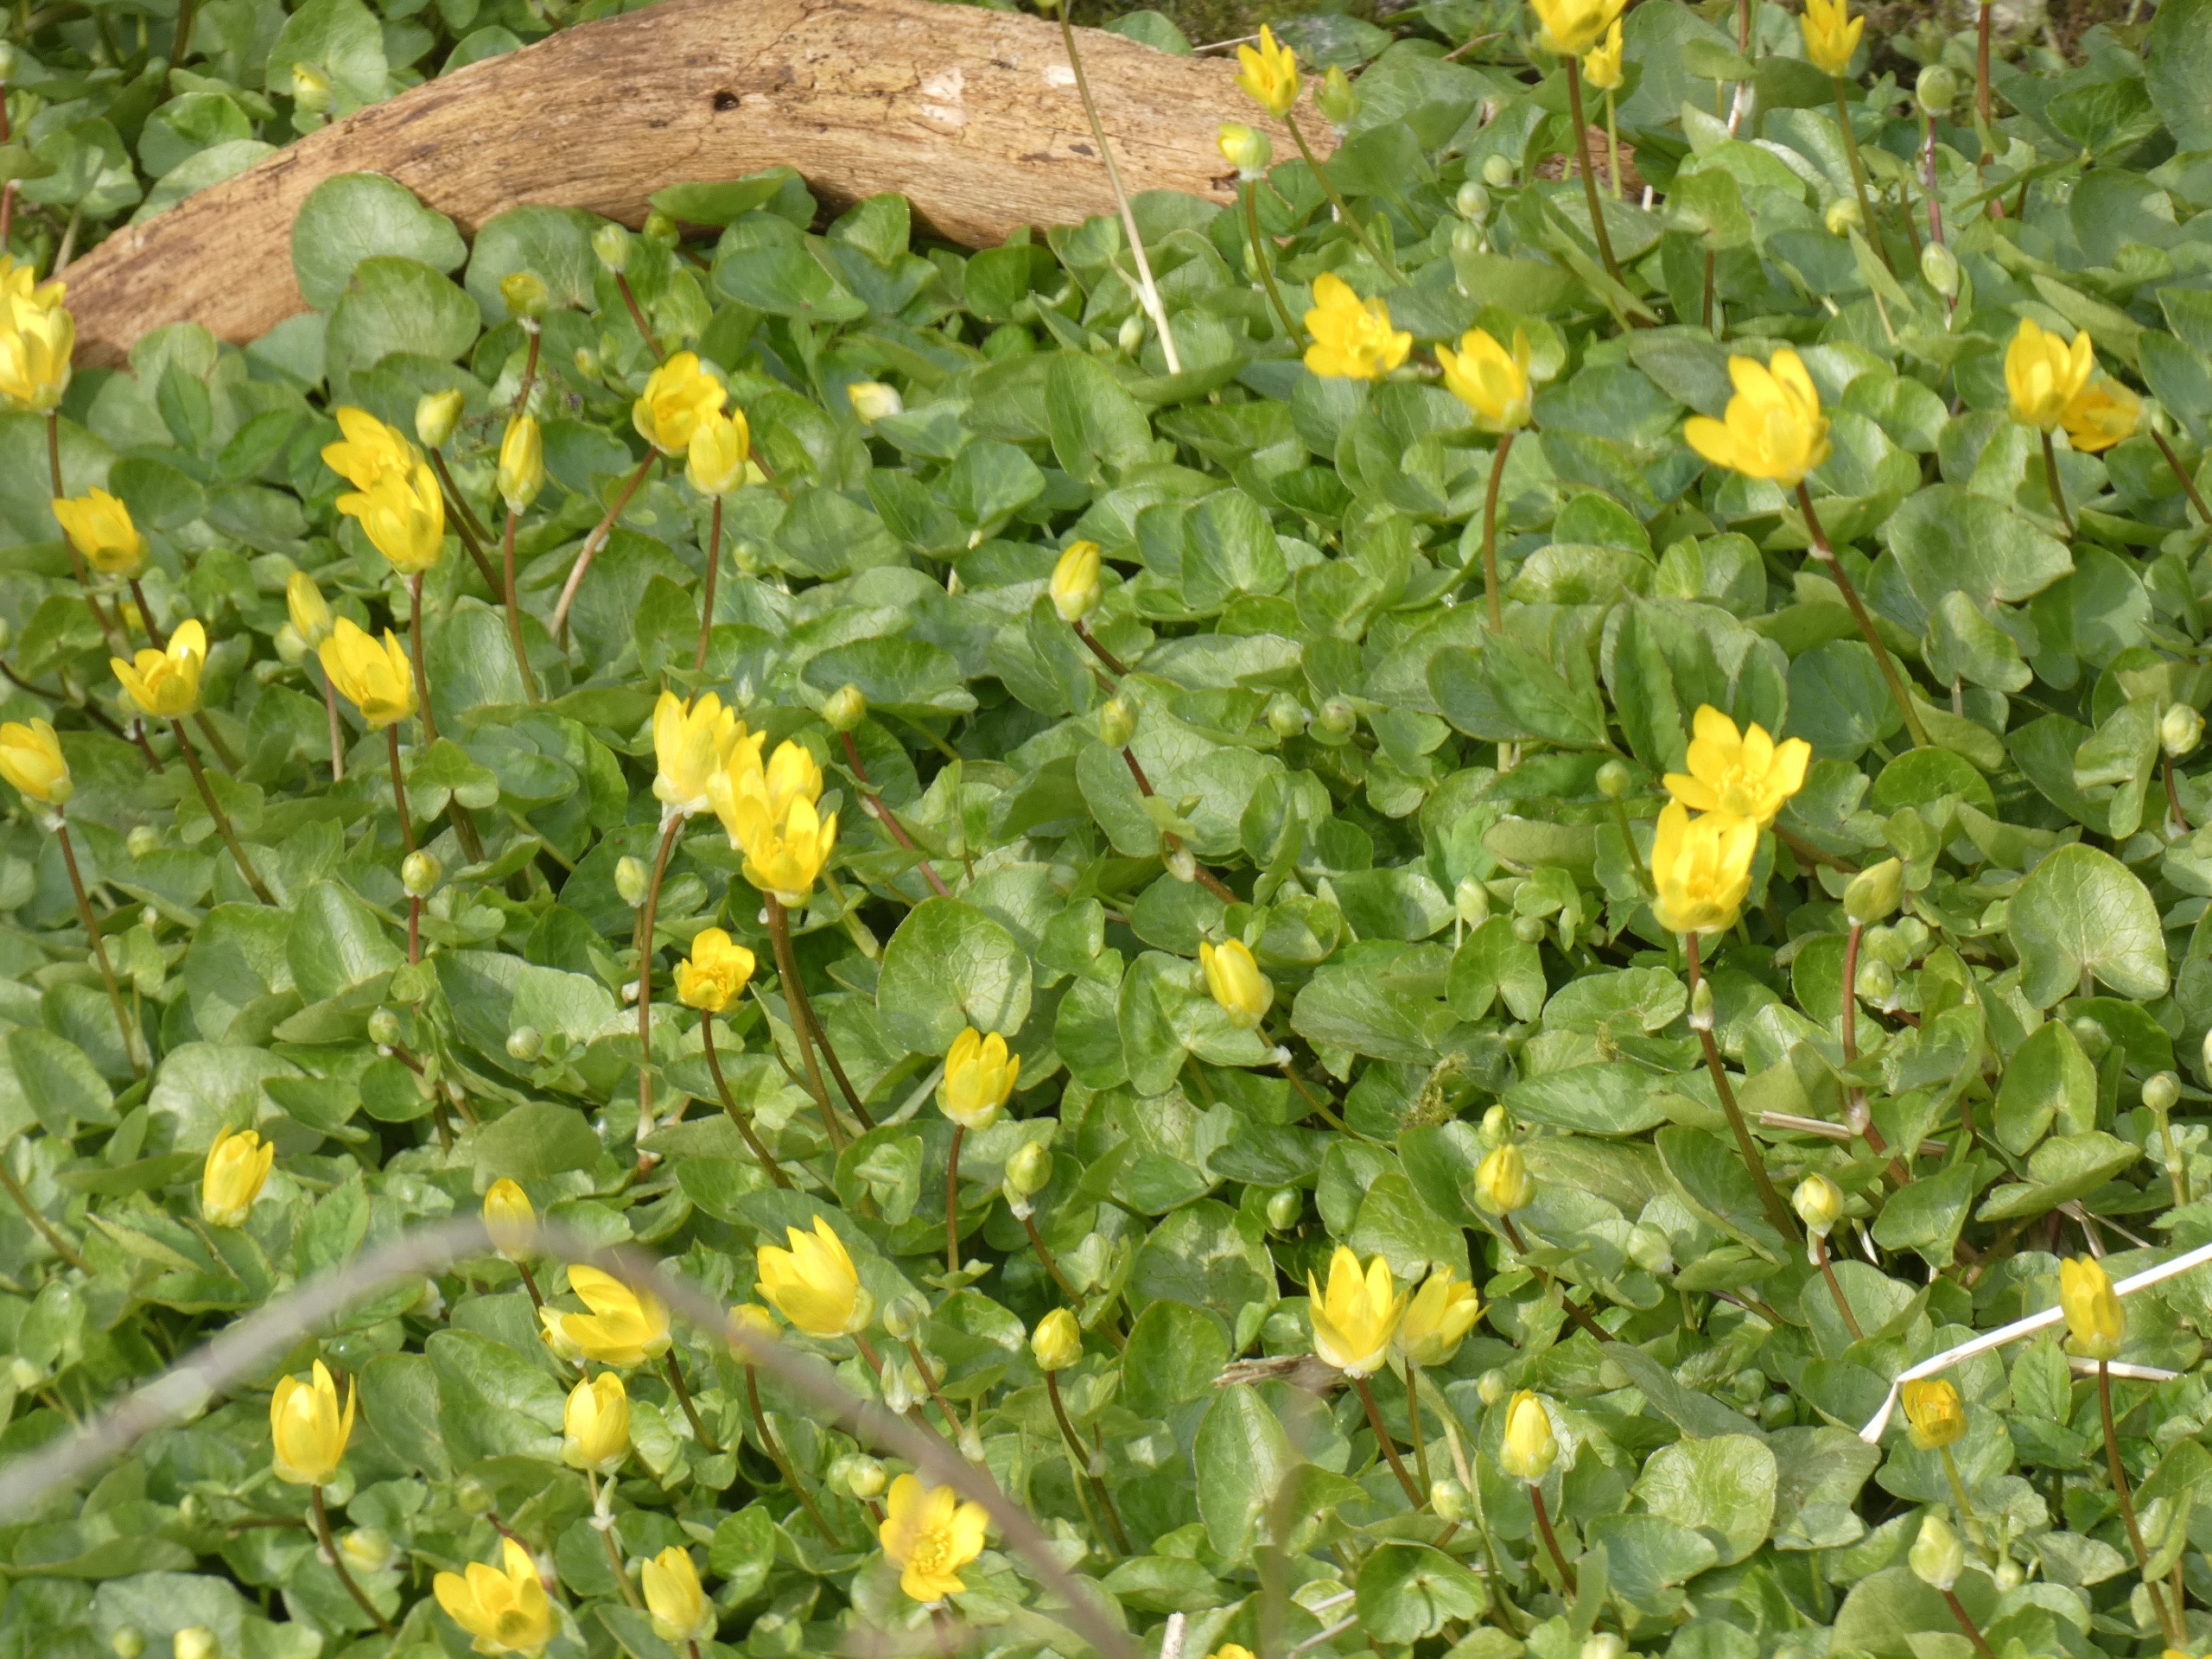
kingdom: Plantae
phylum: Tracheophyta
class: Magnoliopsida
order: Ranunculales
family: Ranunculaceae
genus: Ficaria
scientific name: Ficaria verna
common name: Vorterod
